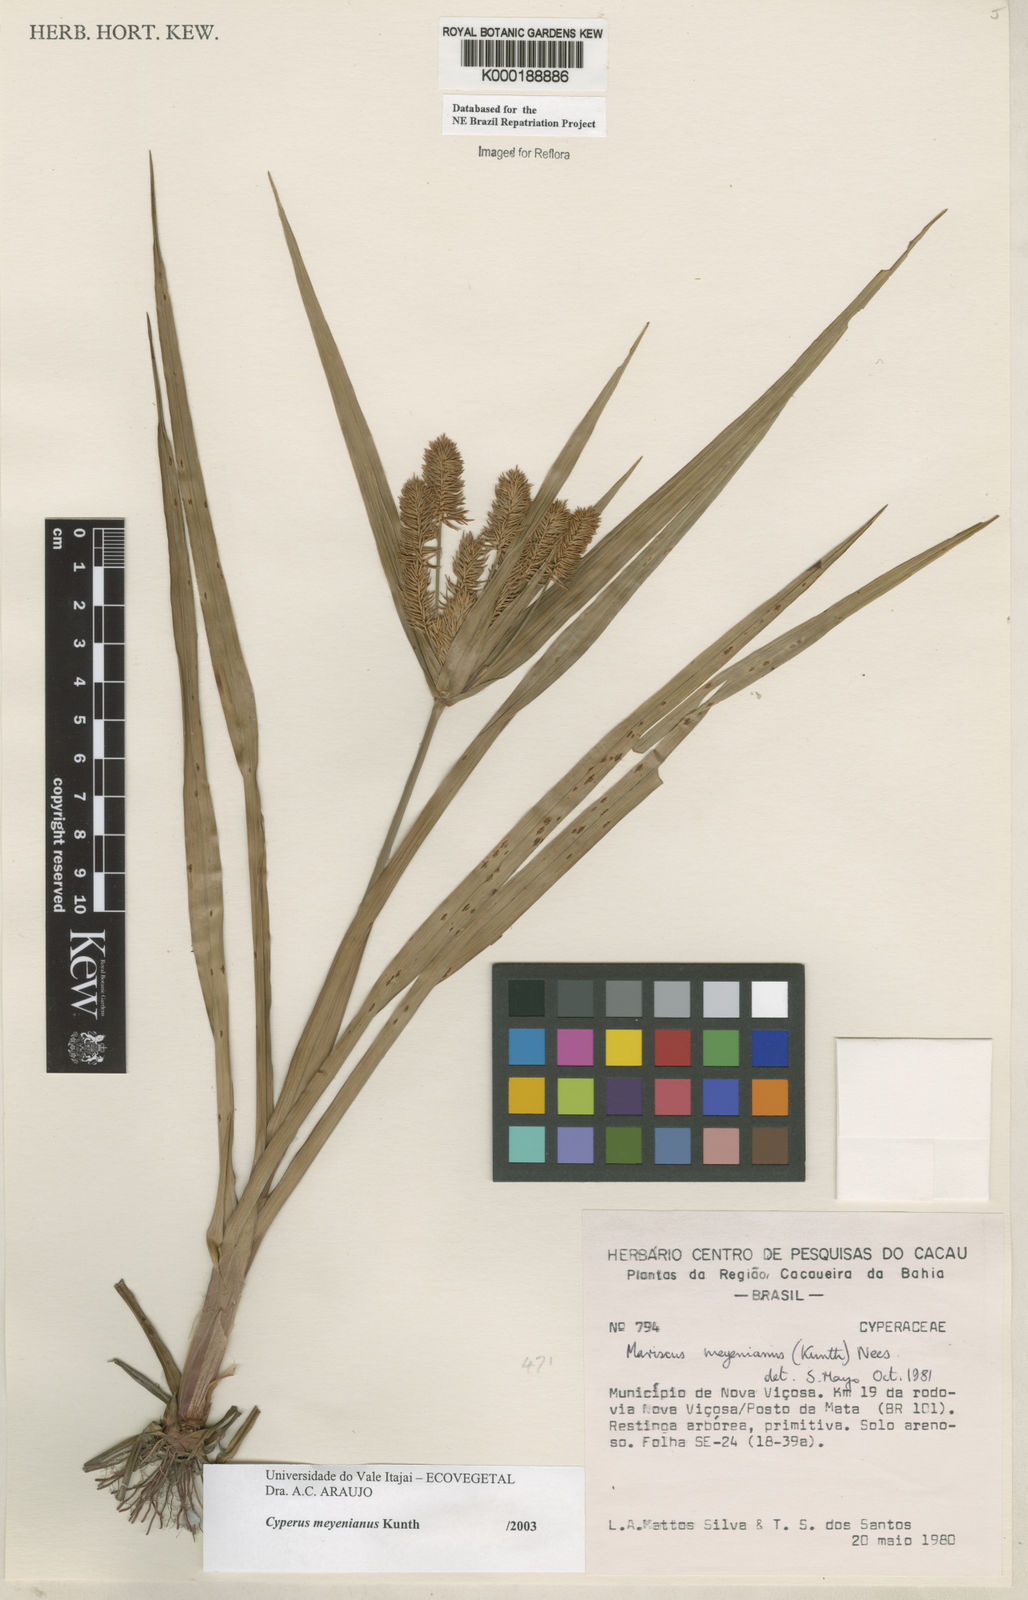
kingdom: Plantae
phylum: Tracheophyta
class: Liliopsida
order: Poales
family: Cyperaceae
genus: Cyperus
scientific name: Cyperus meyerianus
